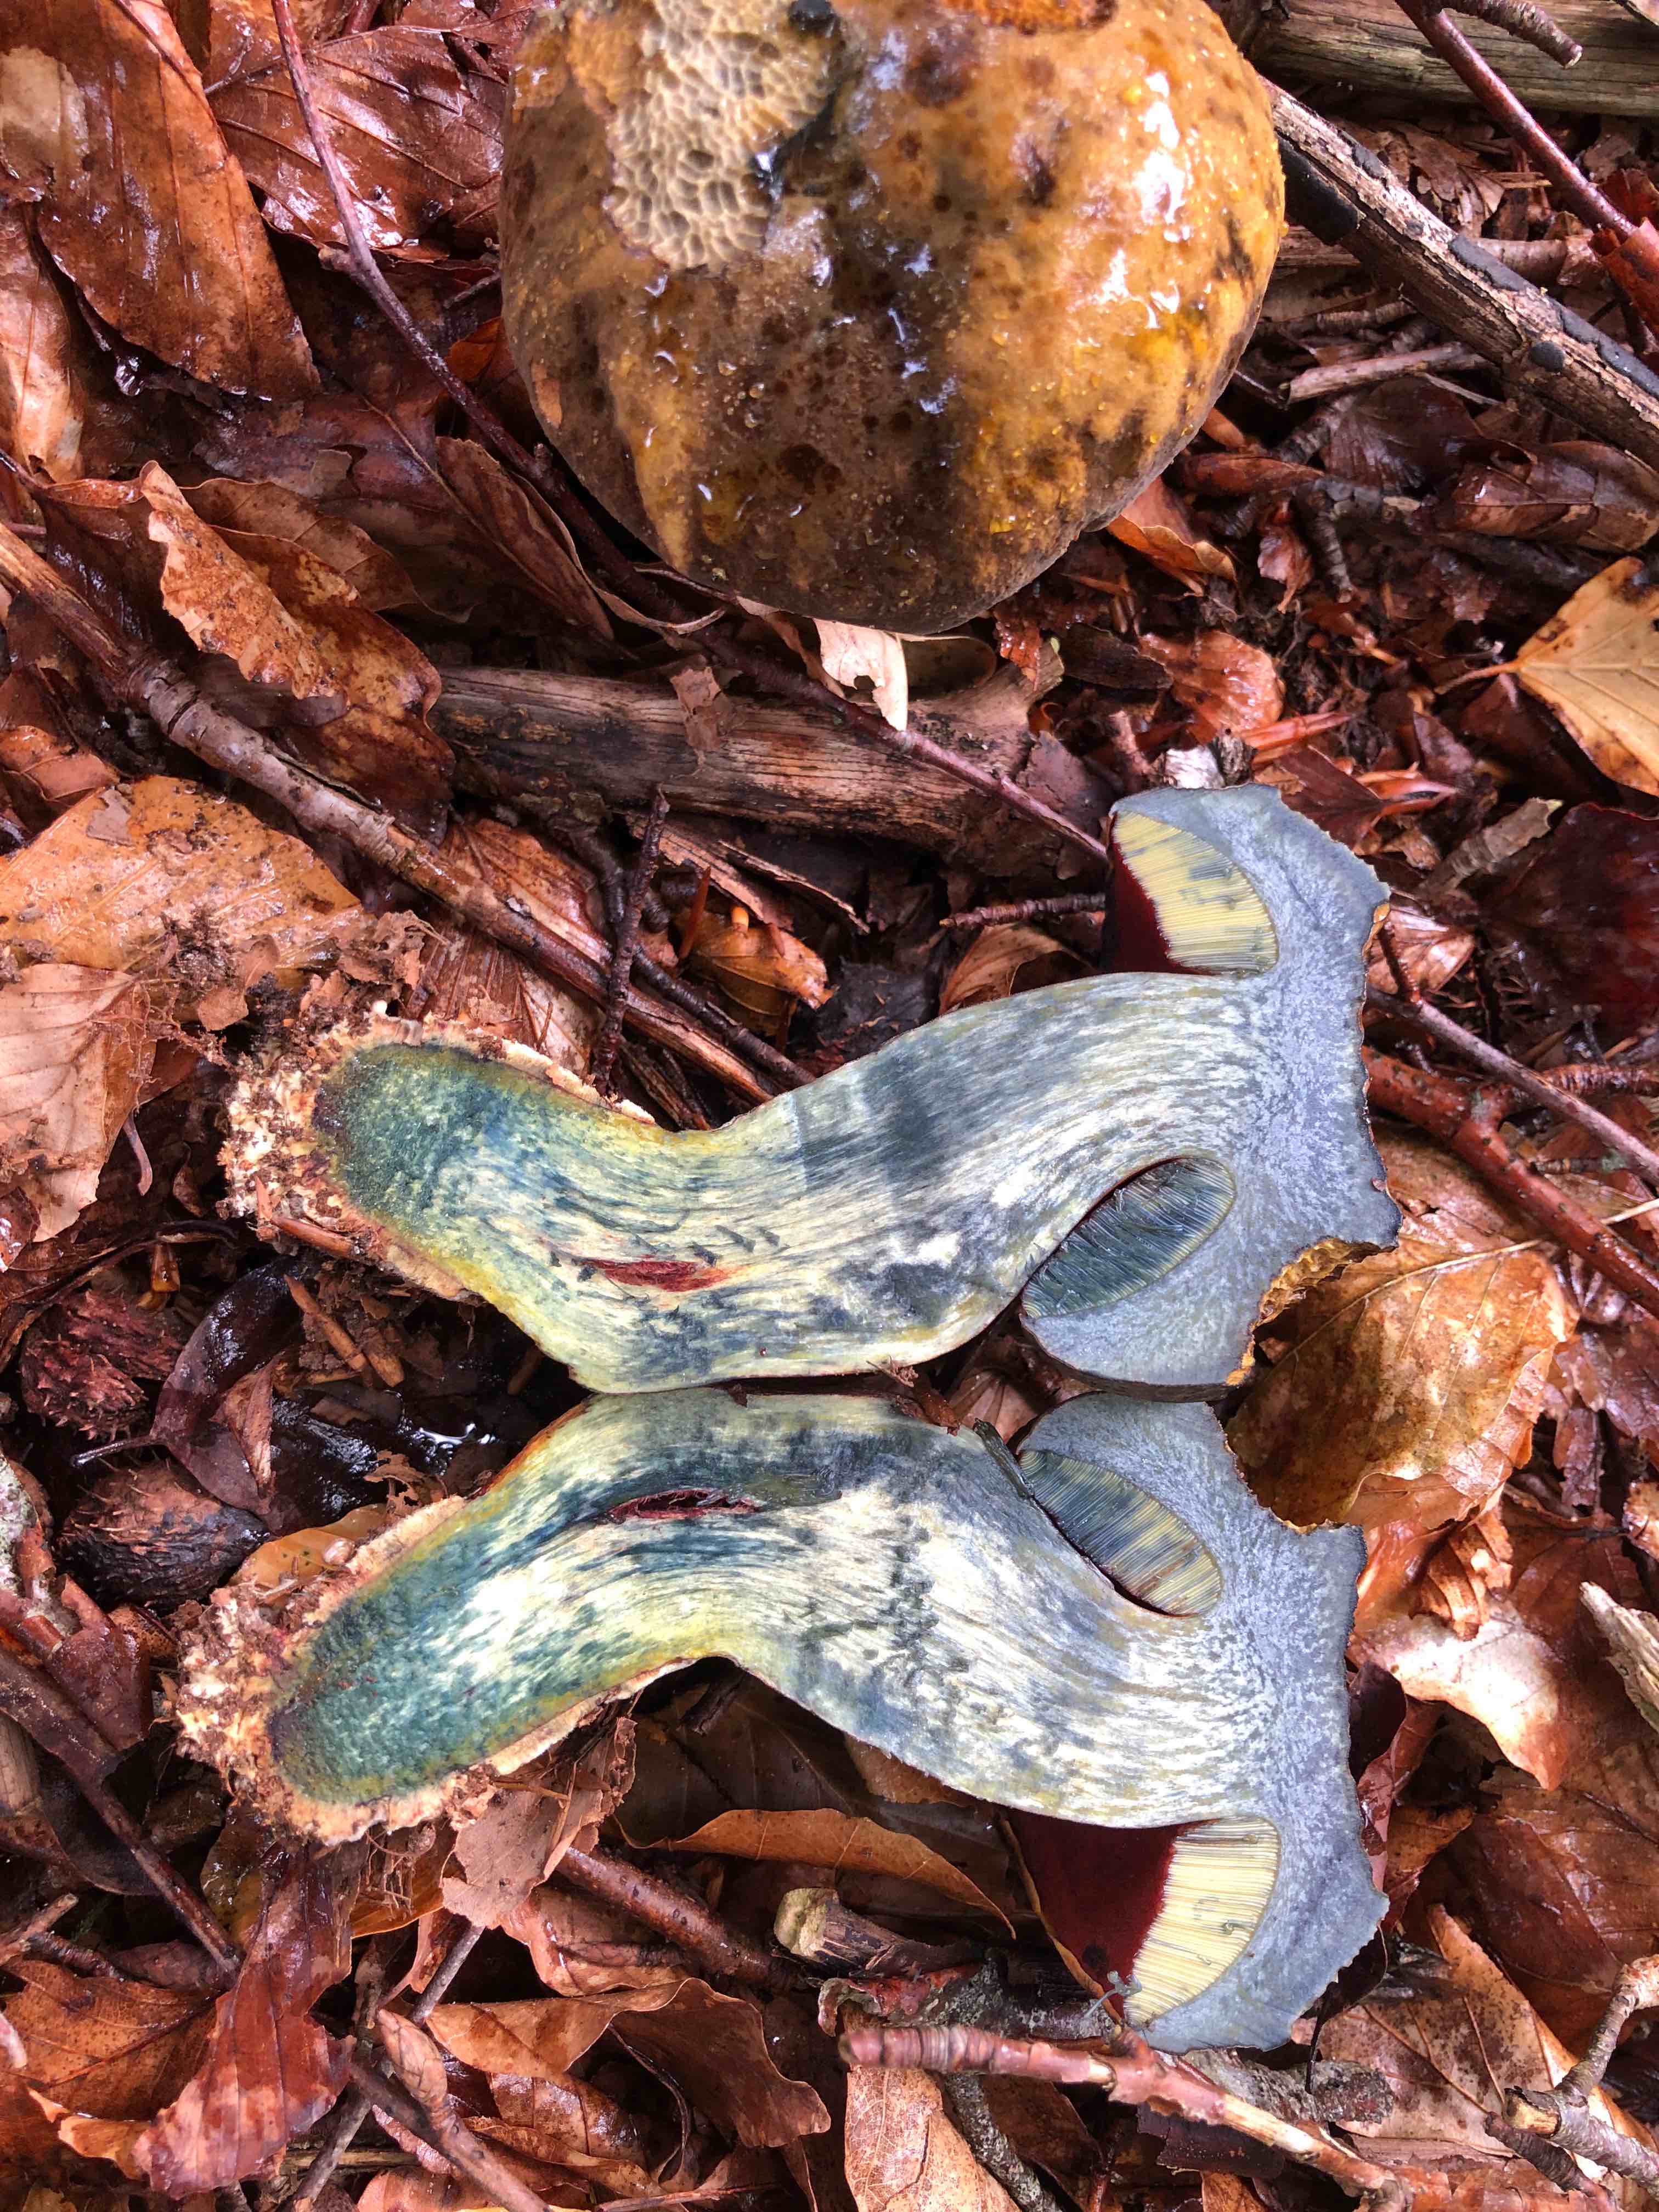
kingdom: Fungi
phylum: Basidiomycota
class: Agaricomycetes
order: Boletales
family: Boletaceae
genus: Neoboletus
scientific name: Neoboletus erythropus
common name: punktstokket indigorørhat
